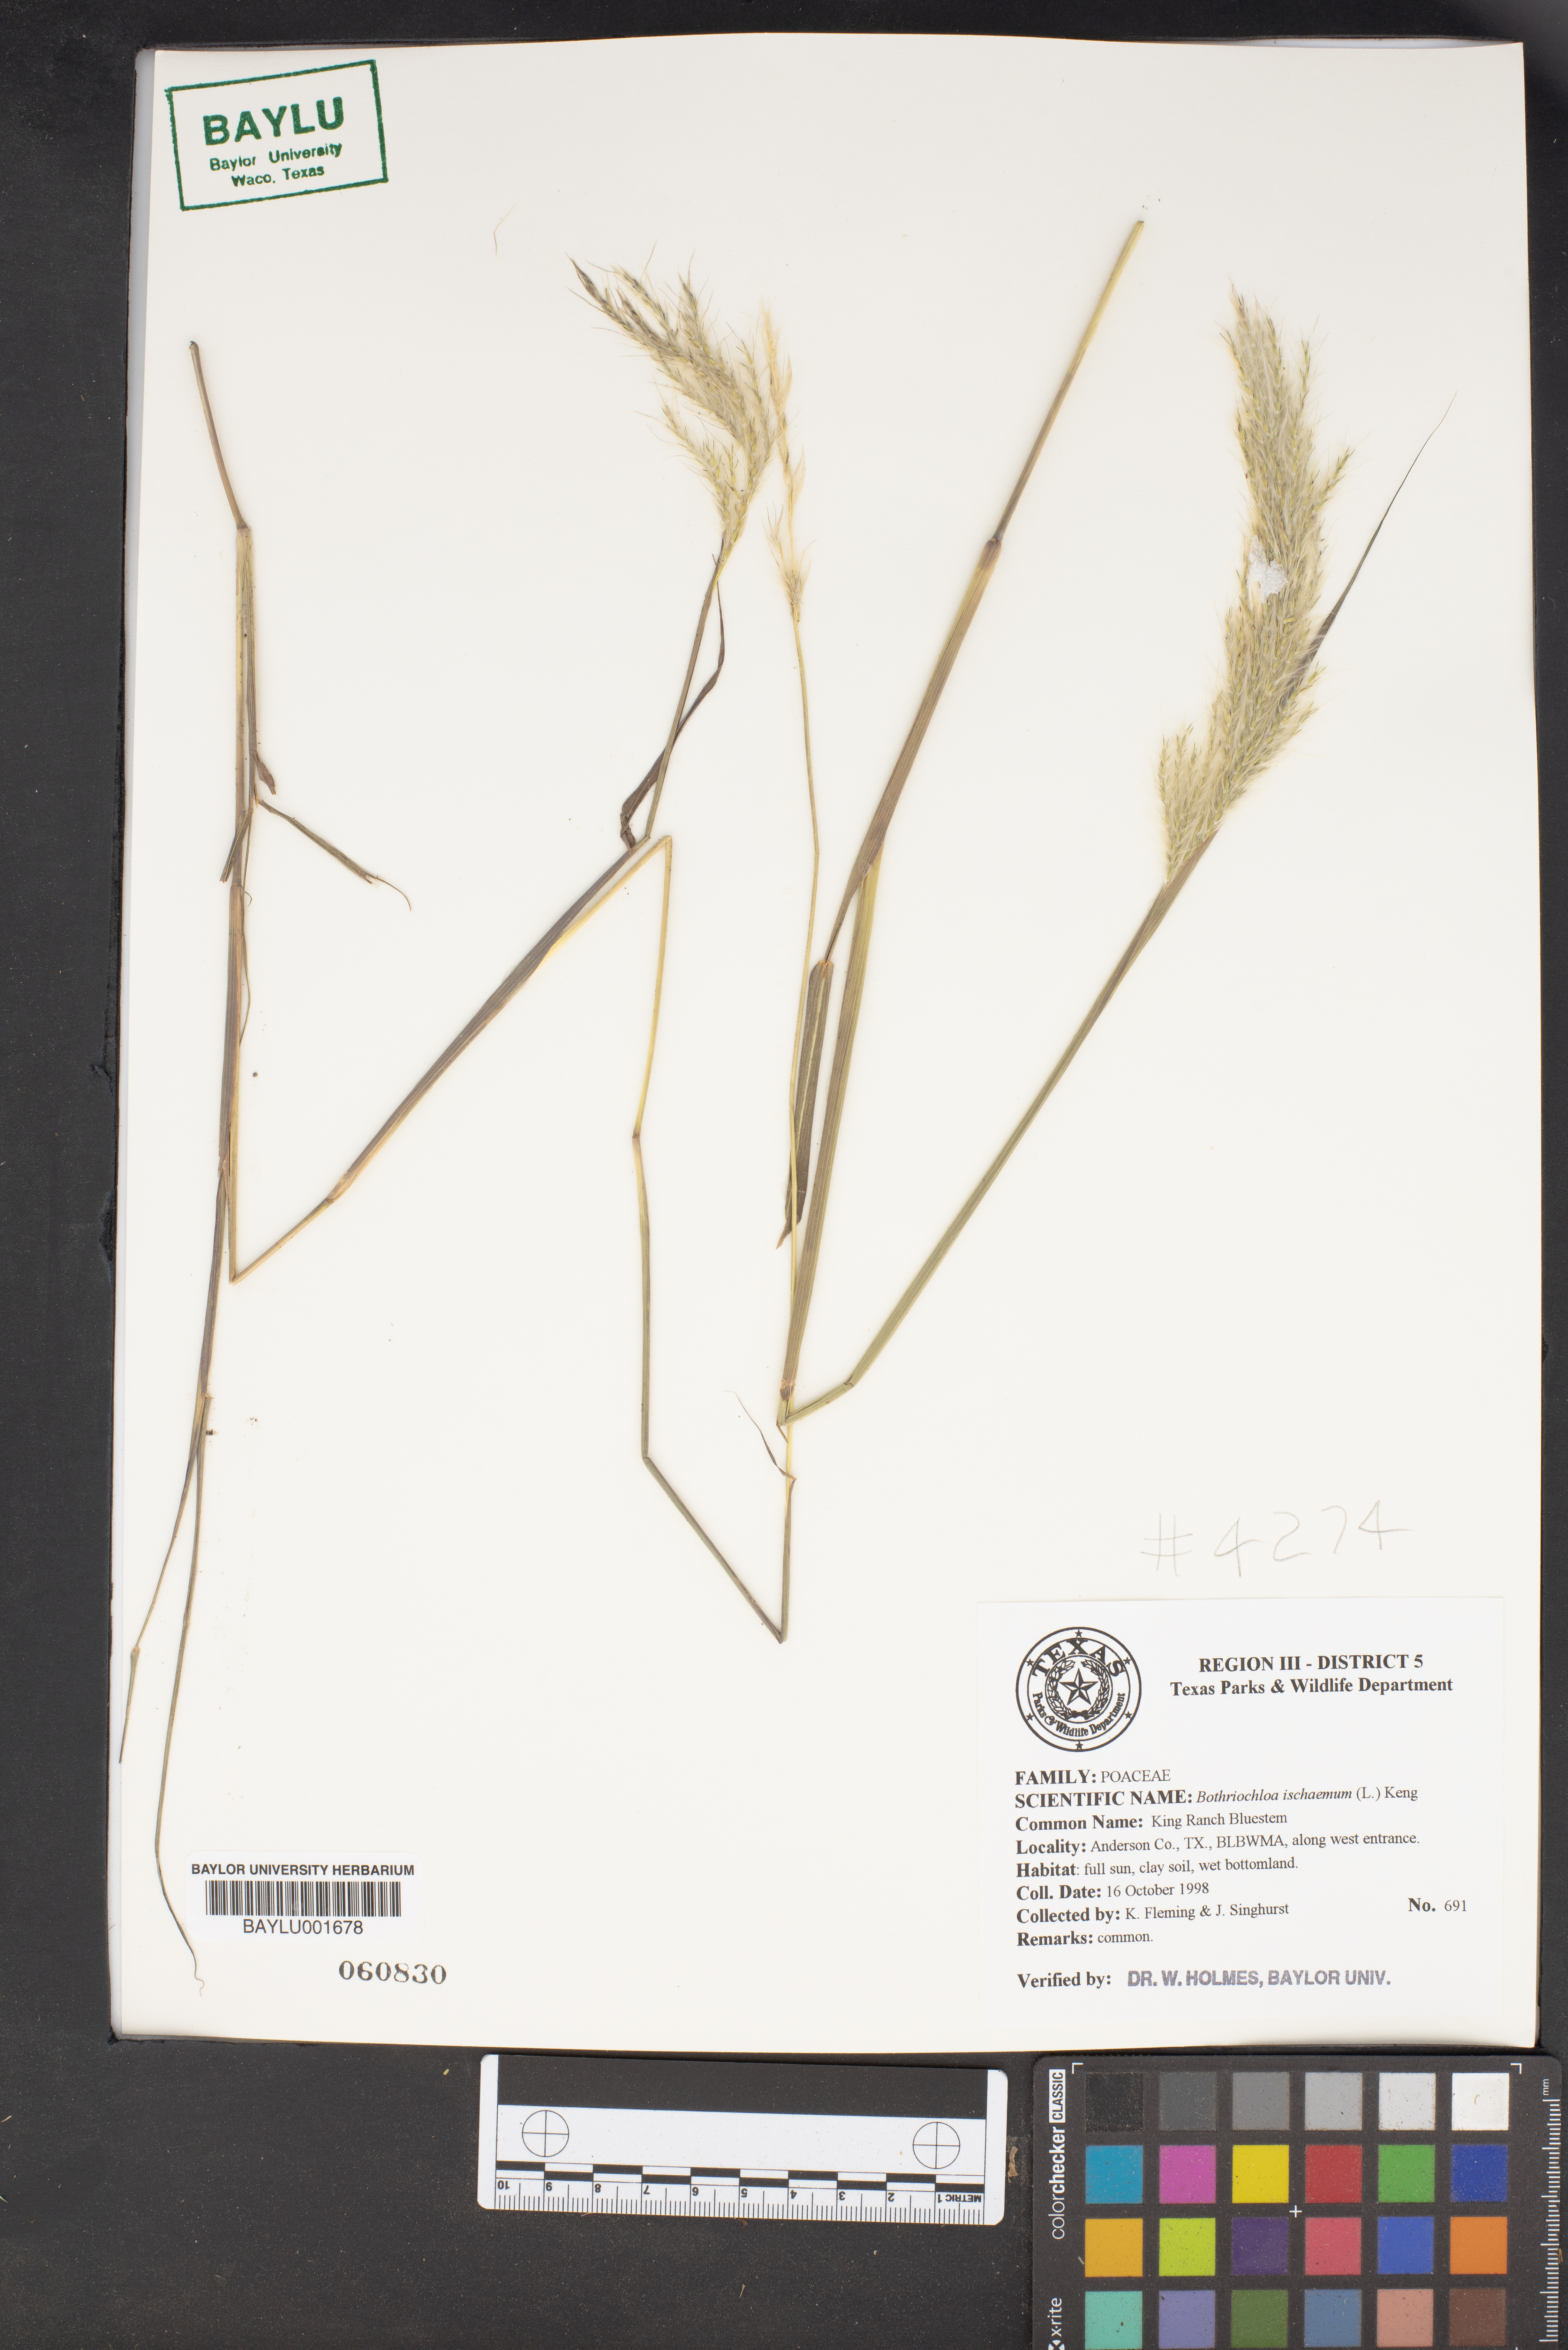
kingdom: Plantae
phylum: Tracheophyta
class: Liliopsida
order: Poales
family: Poaceae
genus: Bothriochloa
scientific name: Bothriochloa ischaemum
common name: Yellow bluestem
